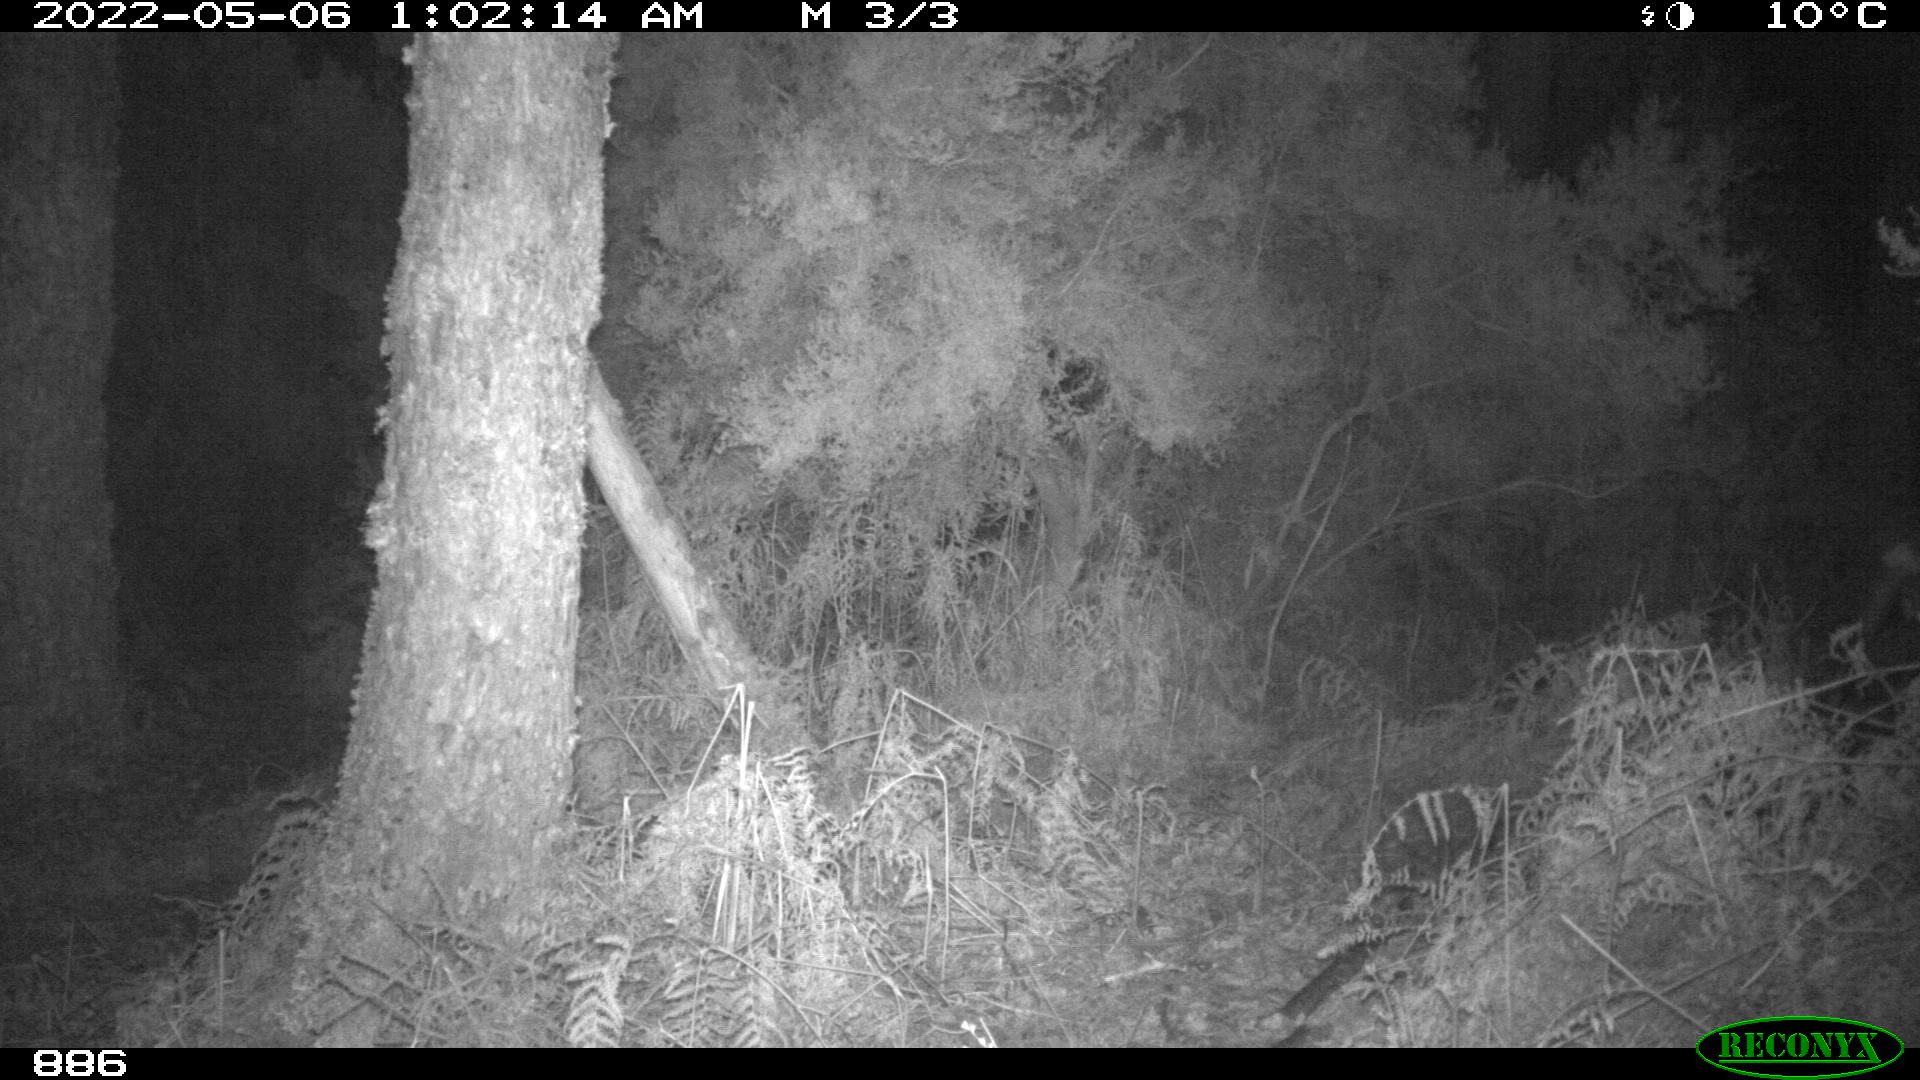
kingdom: Animalia
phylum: Chordata
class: Mammalia
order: Artiodactyla
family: Cervidae
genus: Capreolus
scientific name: Capreolus capreolus
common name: Western roe deer
